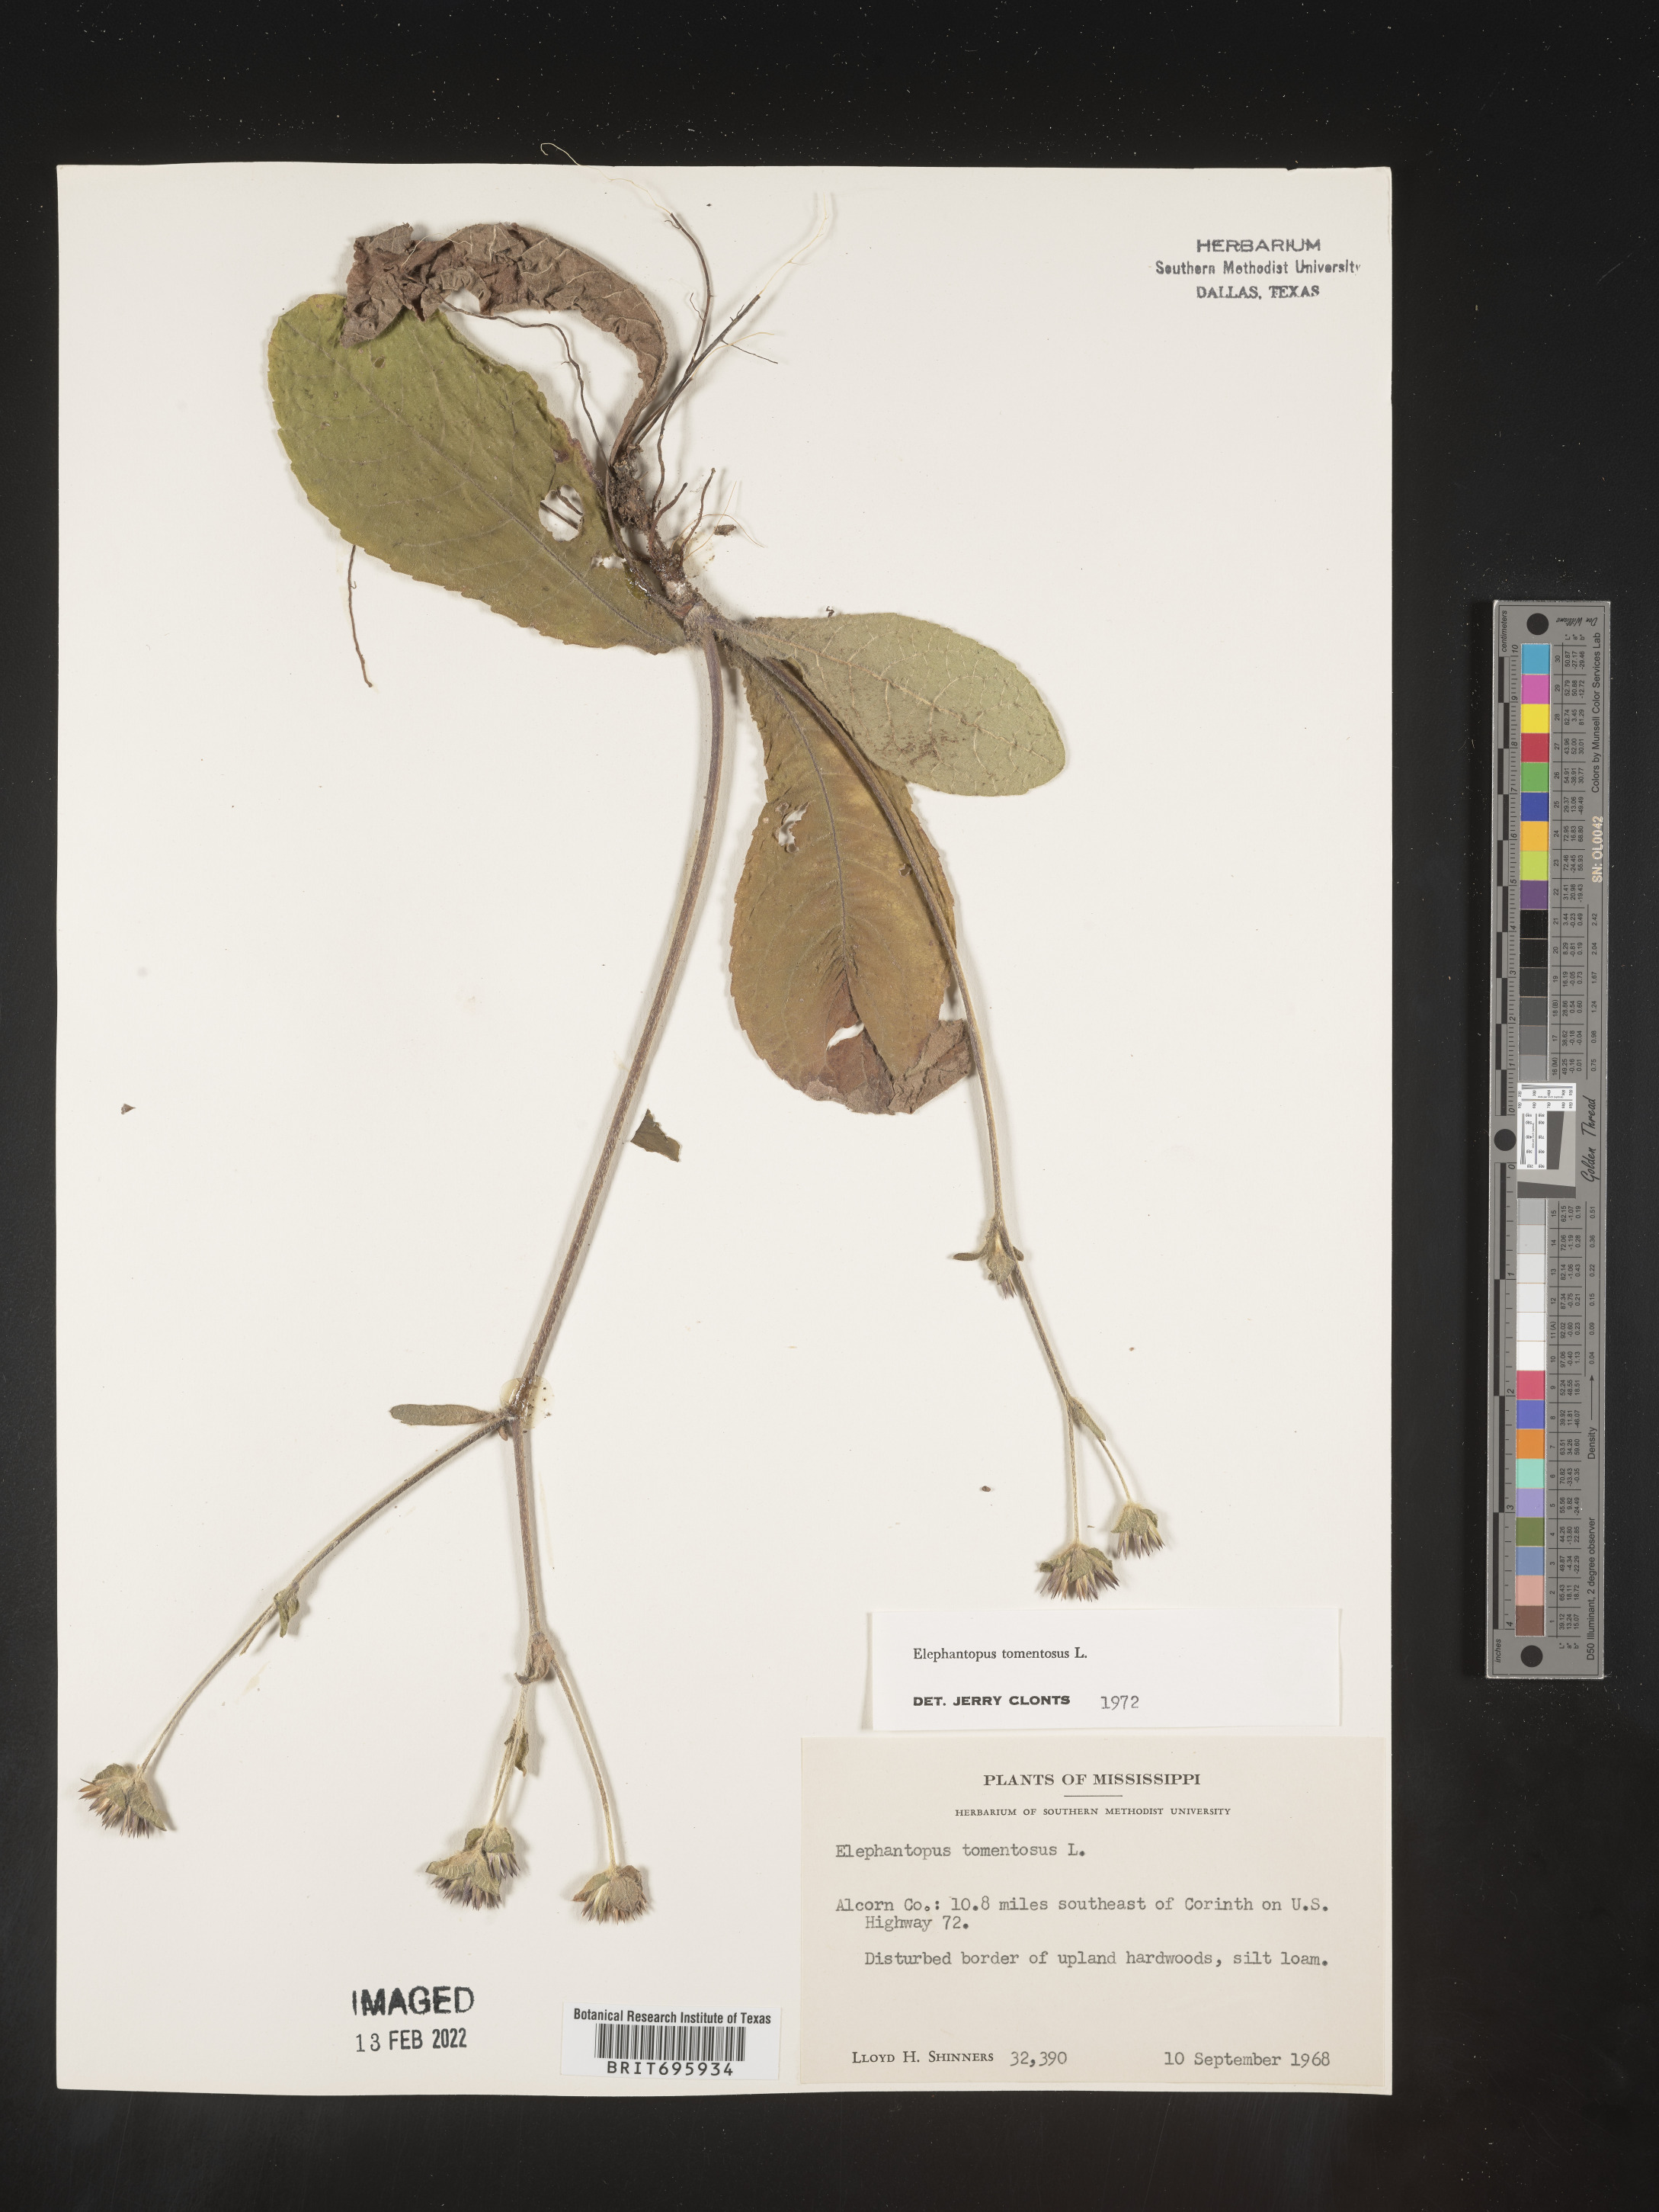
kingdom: Plantae
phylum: Tracheophyta
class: Magnoliopsida
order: Asterales
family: Asteraceae
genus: Elephantopus
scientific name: Elephantopus tomentosus
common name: Tobacco-weed
